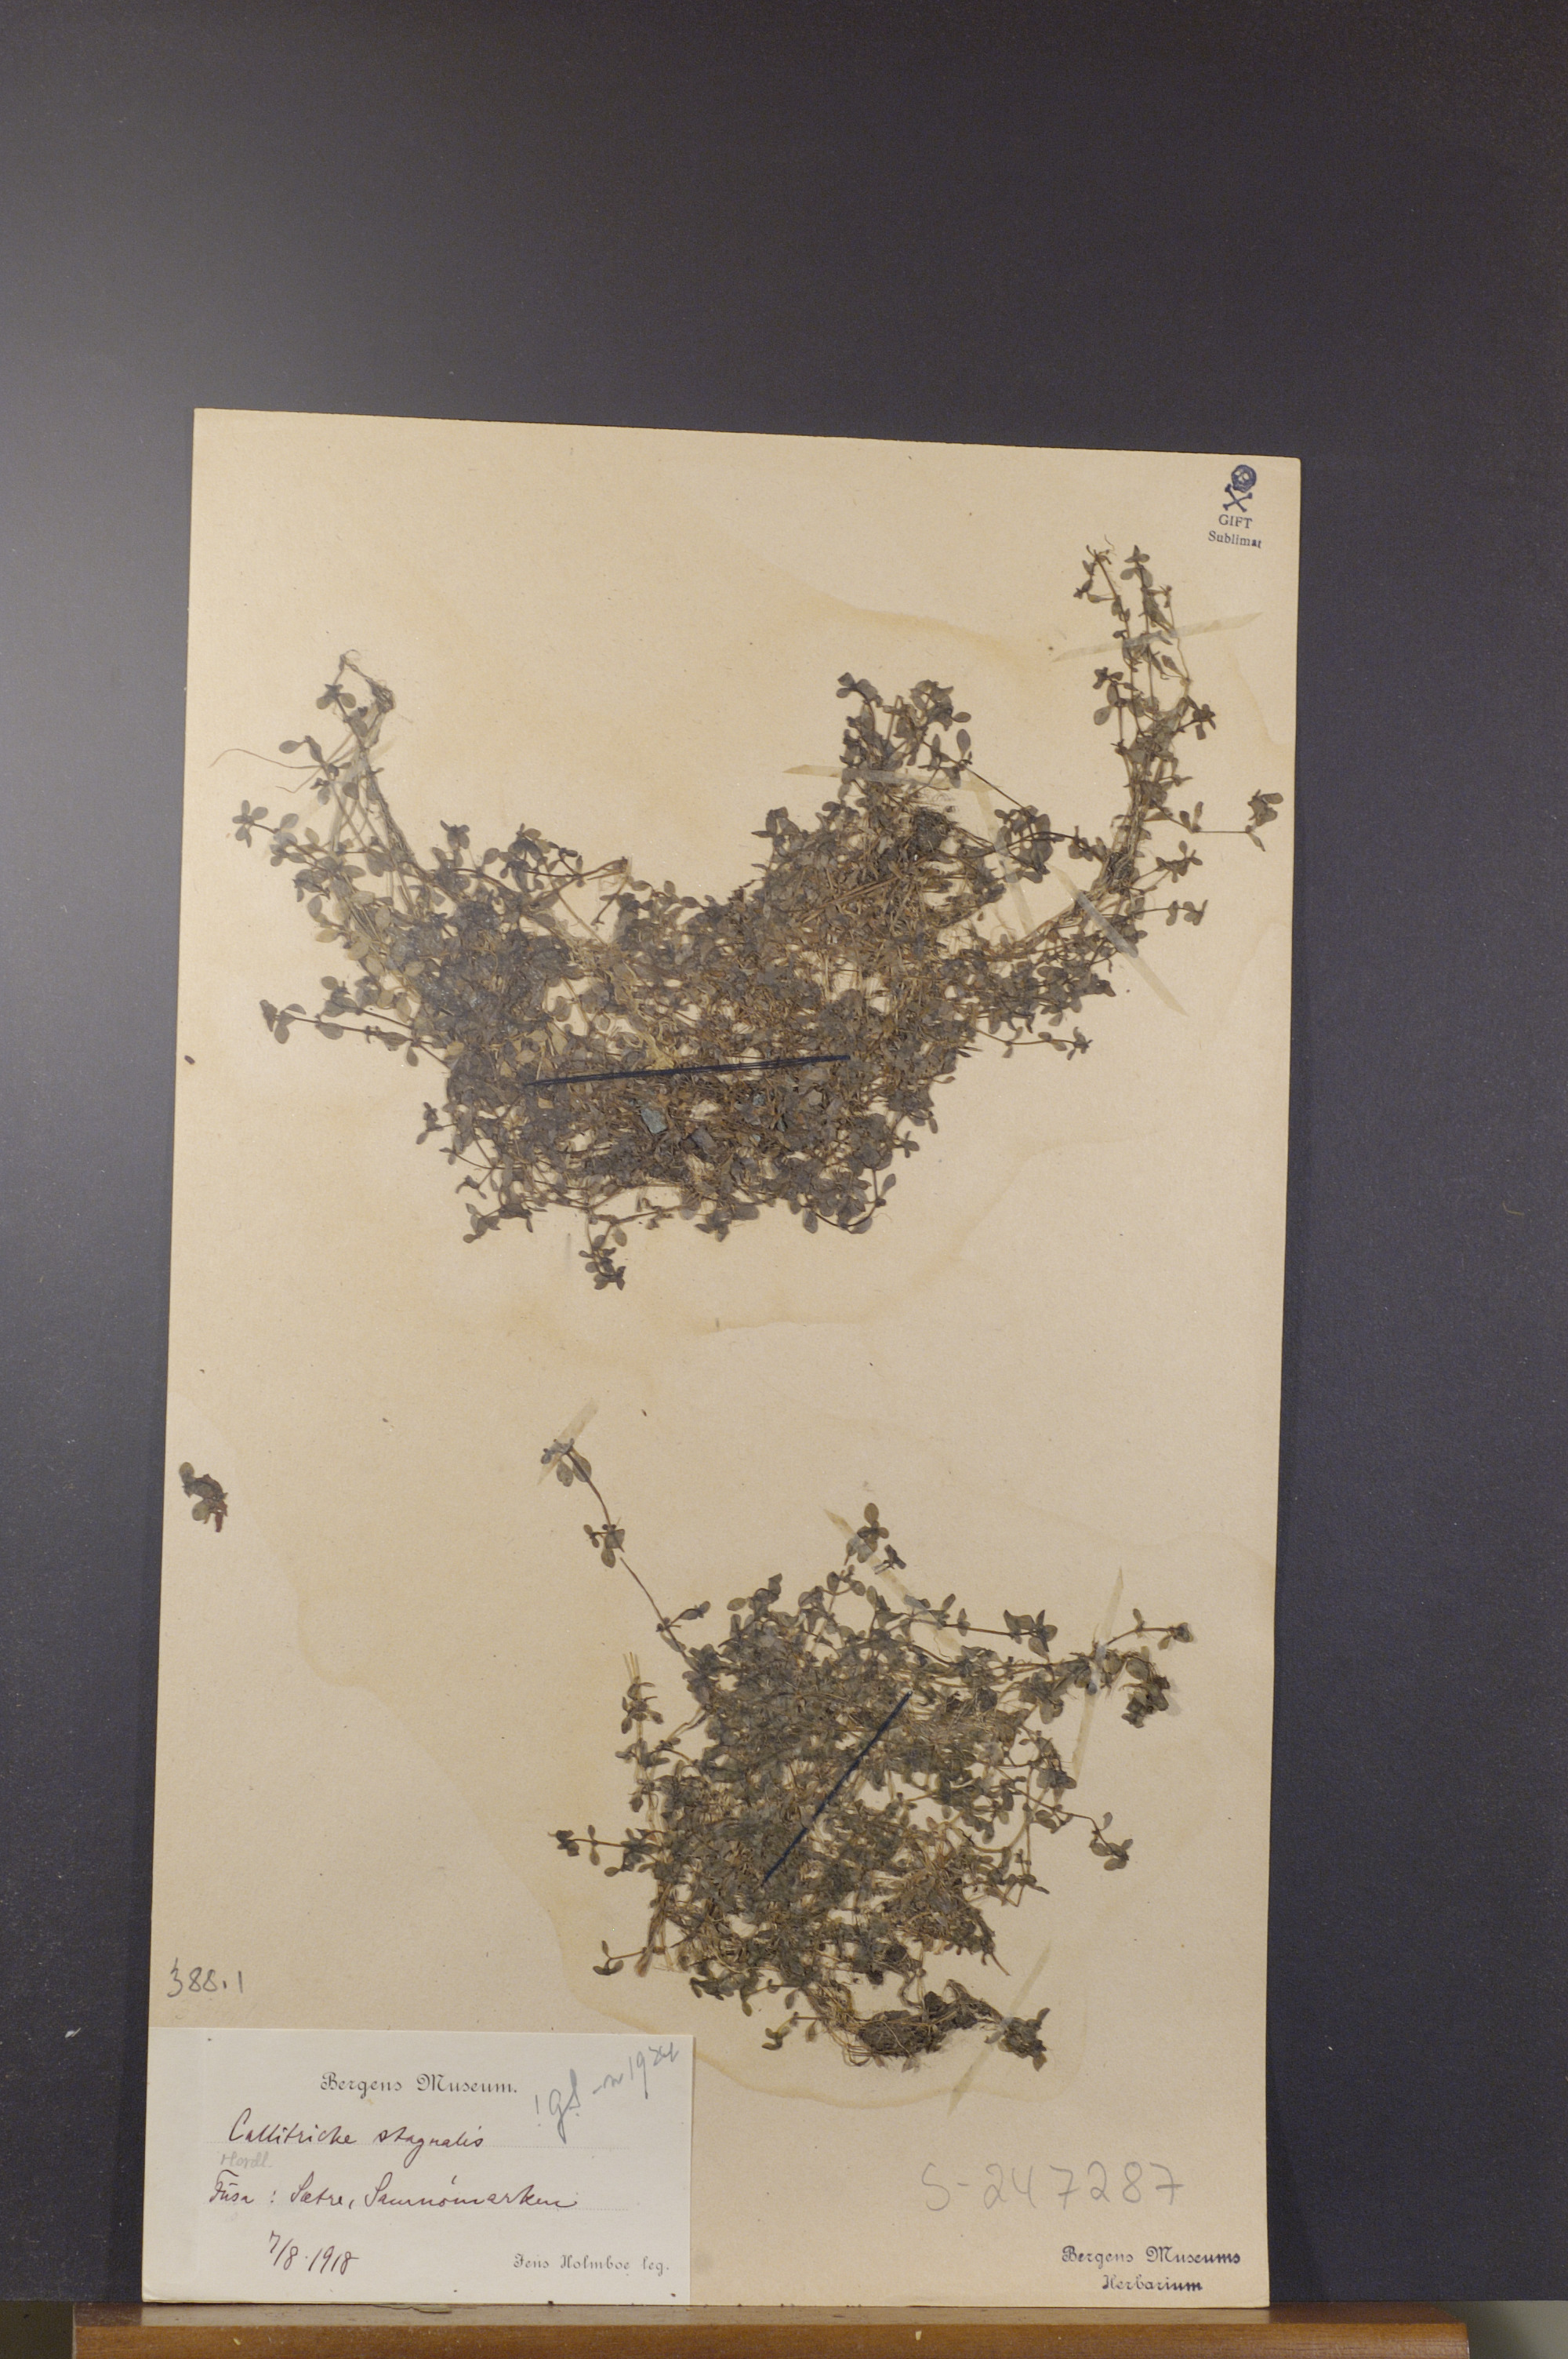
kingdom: Plantae
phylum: Tracheophyta
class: Magnoliopsida
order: Lamiales
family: Plantaginaceae
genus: Callitriche
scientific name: Callitriche stagnalis
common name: Common water-starwort
